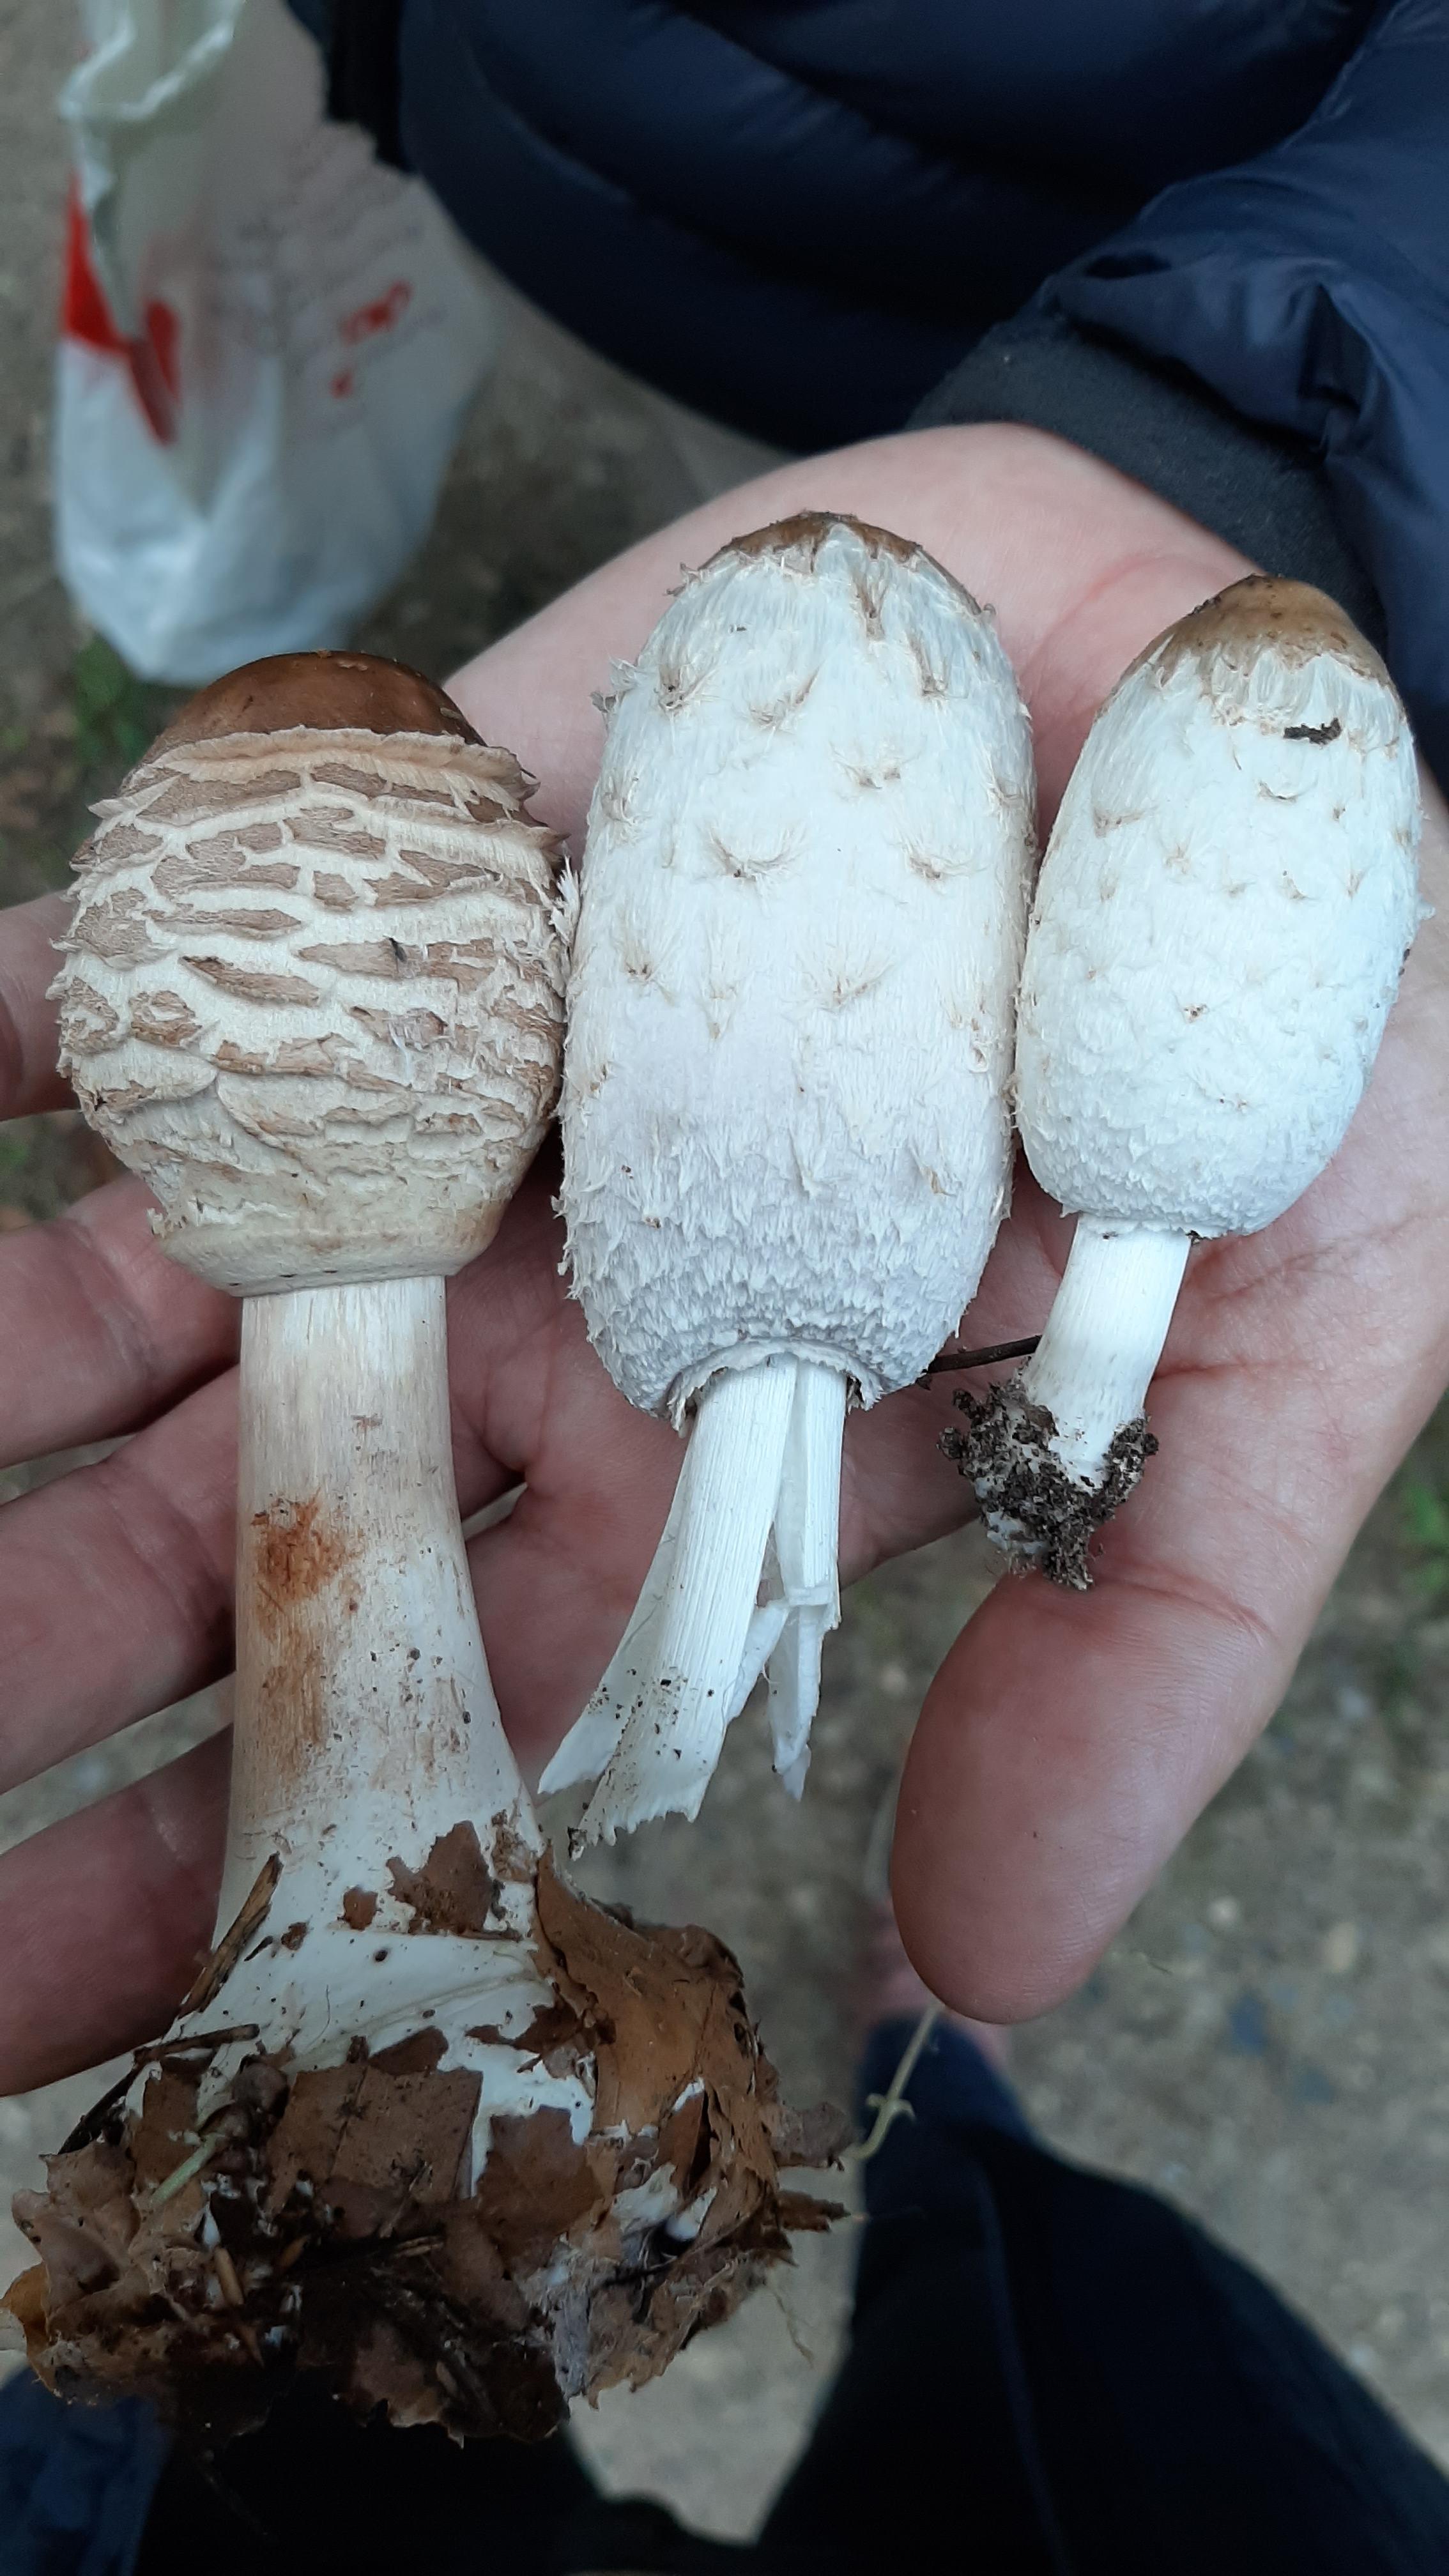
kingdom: Fungi
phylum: Basidiomycota
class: Agaricomycetes
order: Agaricales
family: Agaricaceae
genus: Coprinus
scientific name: Coprinus comatus
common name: stor parykhat
